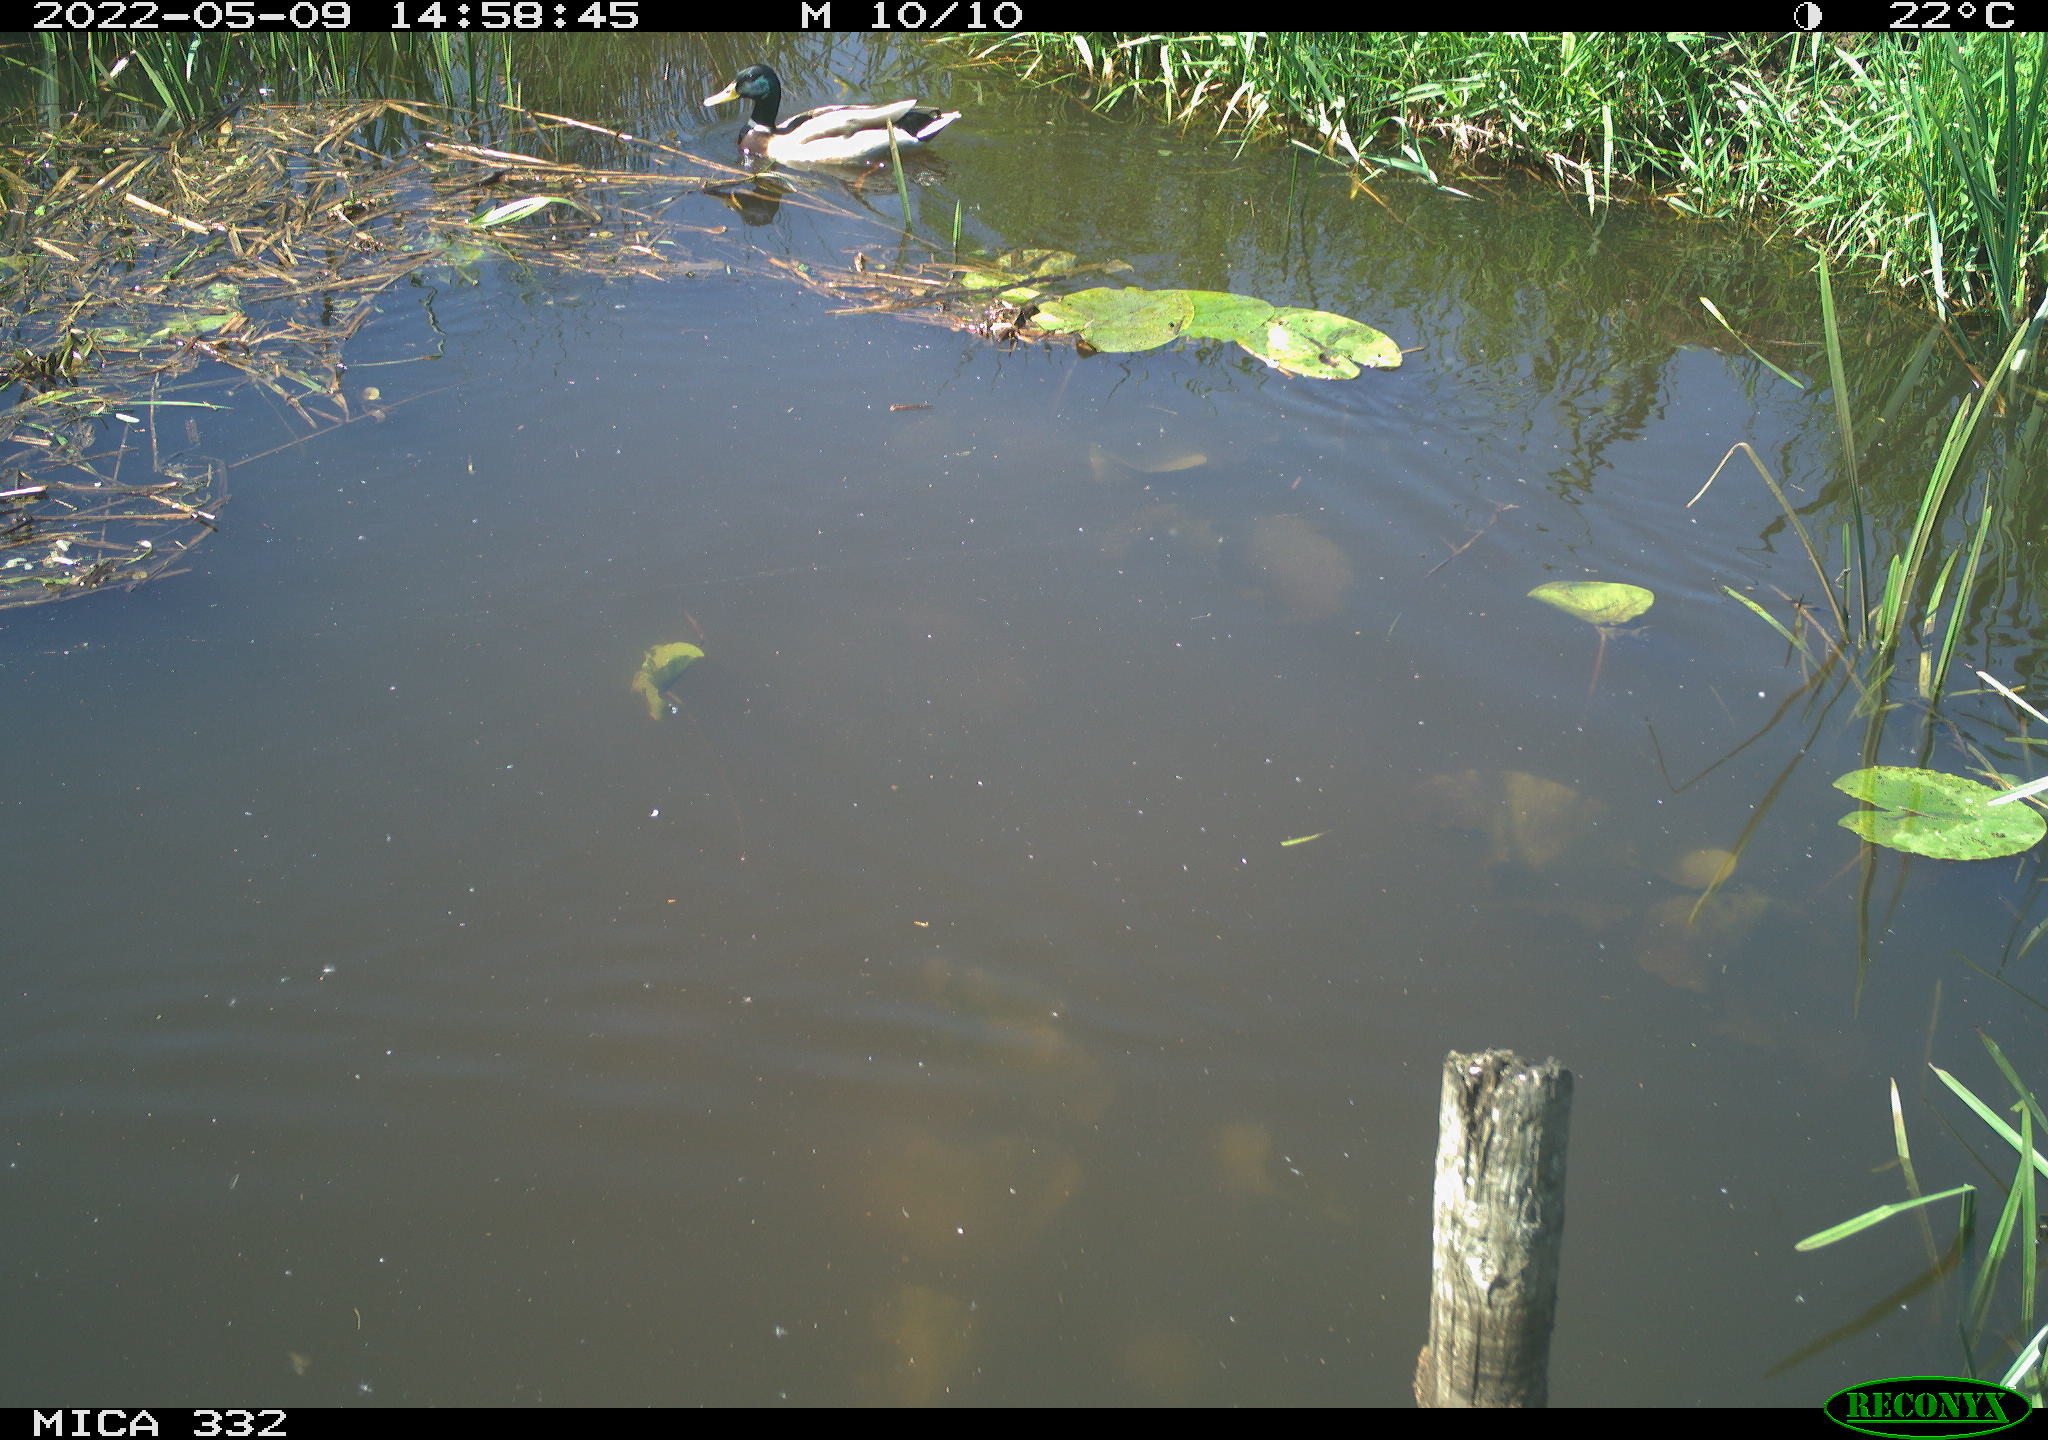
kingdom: Animalia
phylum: Chordata
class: Aves
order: Anseriformes
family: Anatidae
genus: Anas
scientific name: Anas platyrhynchos
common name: Mallard
